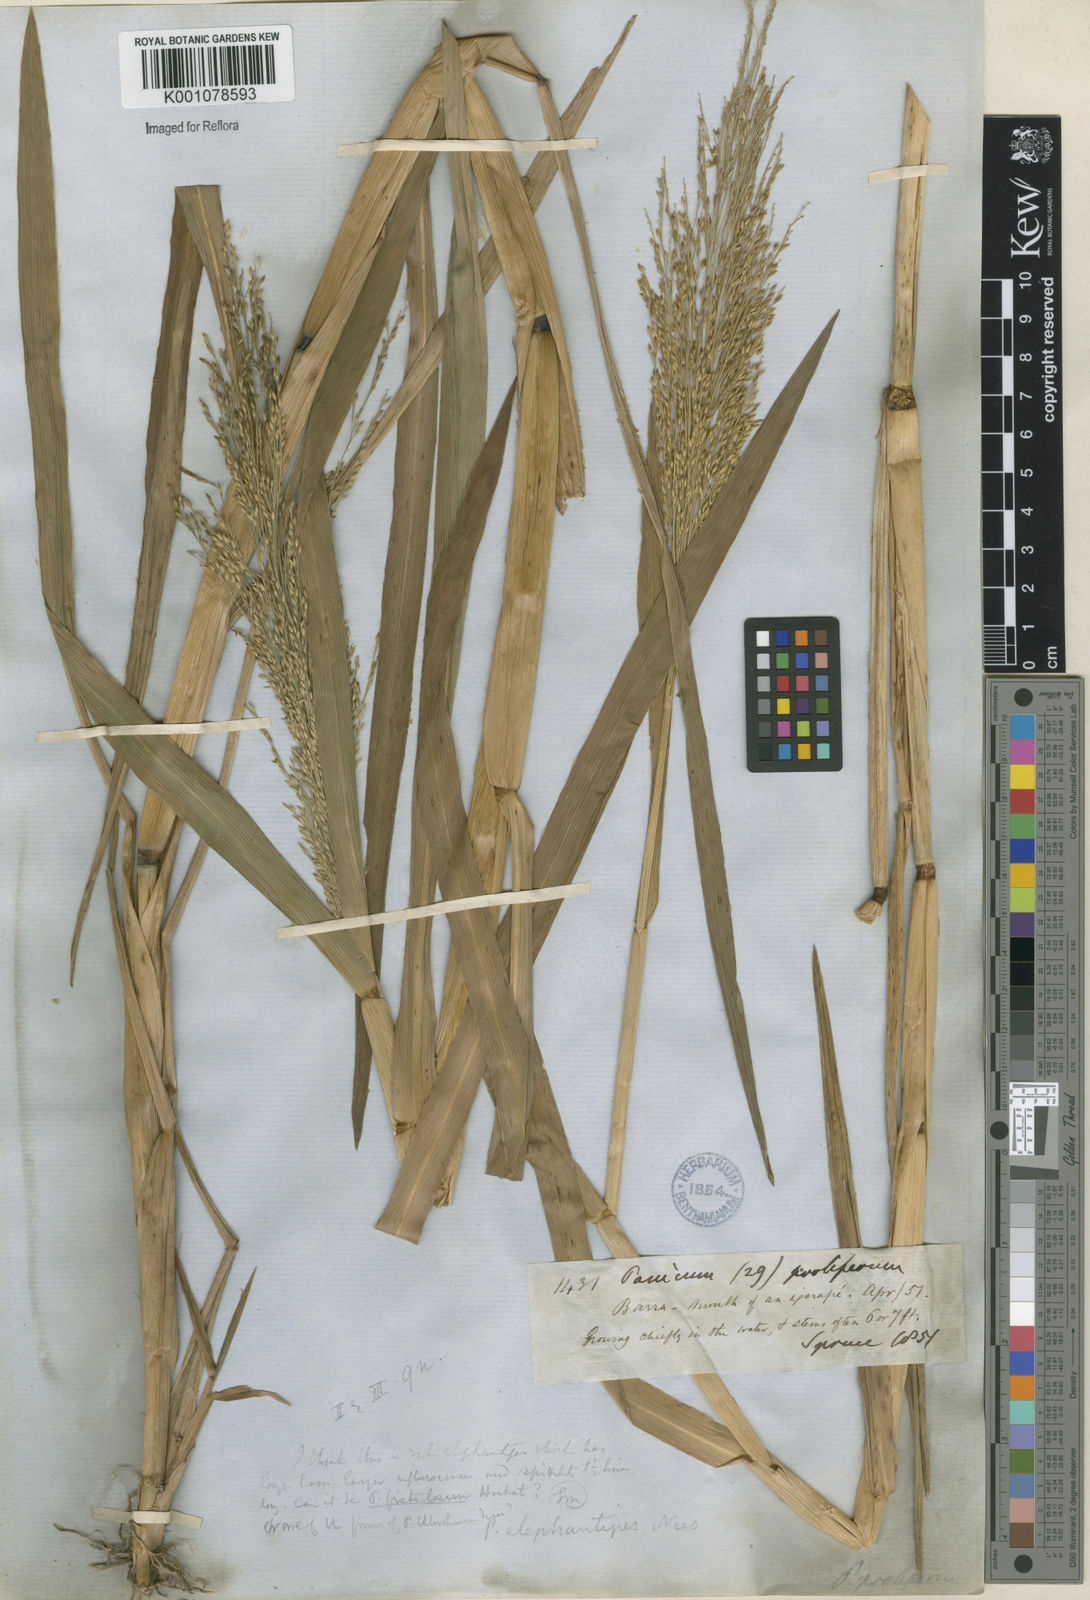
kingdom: Plantae
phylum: Tracheophyta
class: Liliopsida
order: Poales
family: Poaceae
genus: Panicum
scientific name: Panicum dichotomiflorum
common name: Autumn millet
